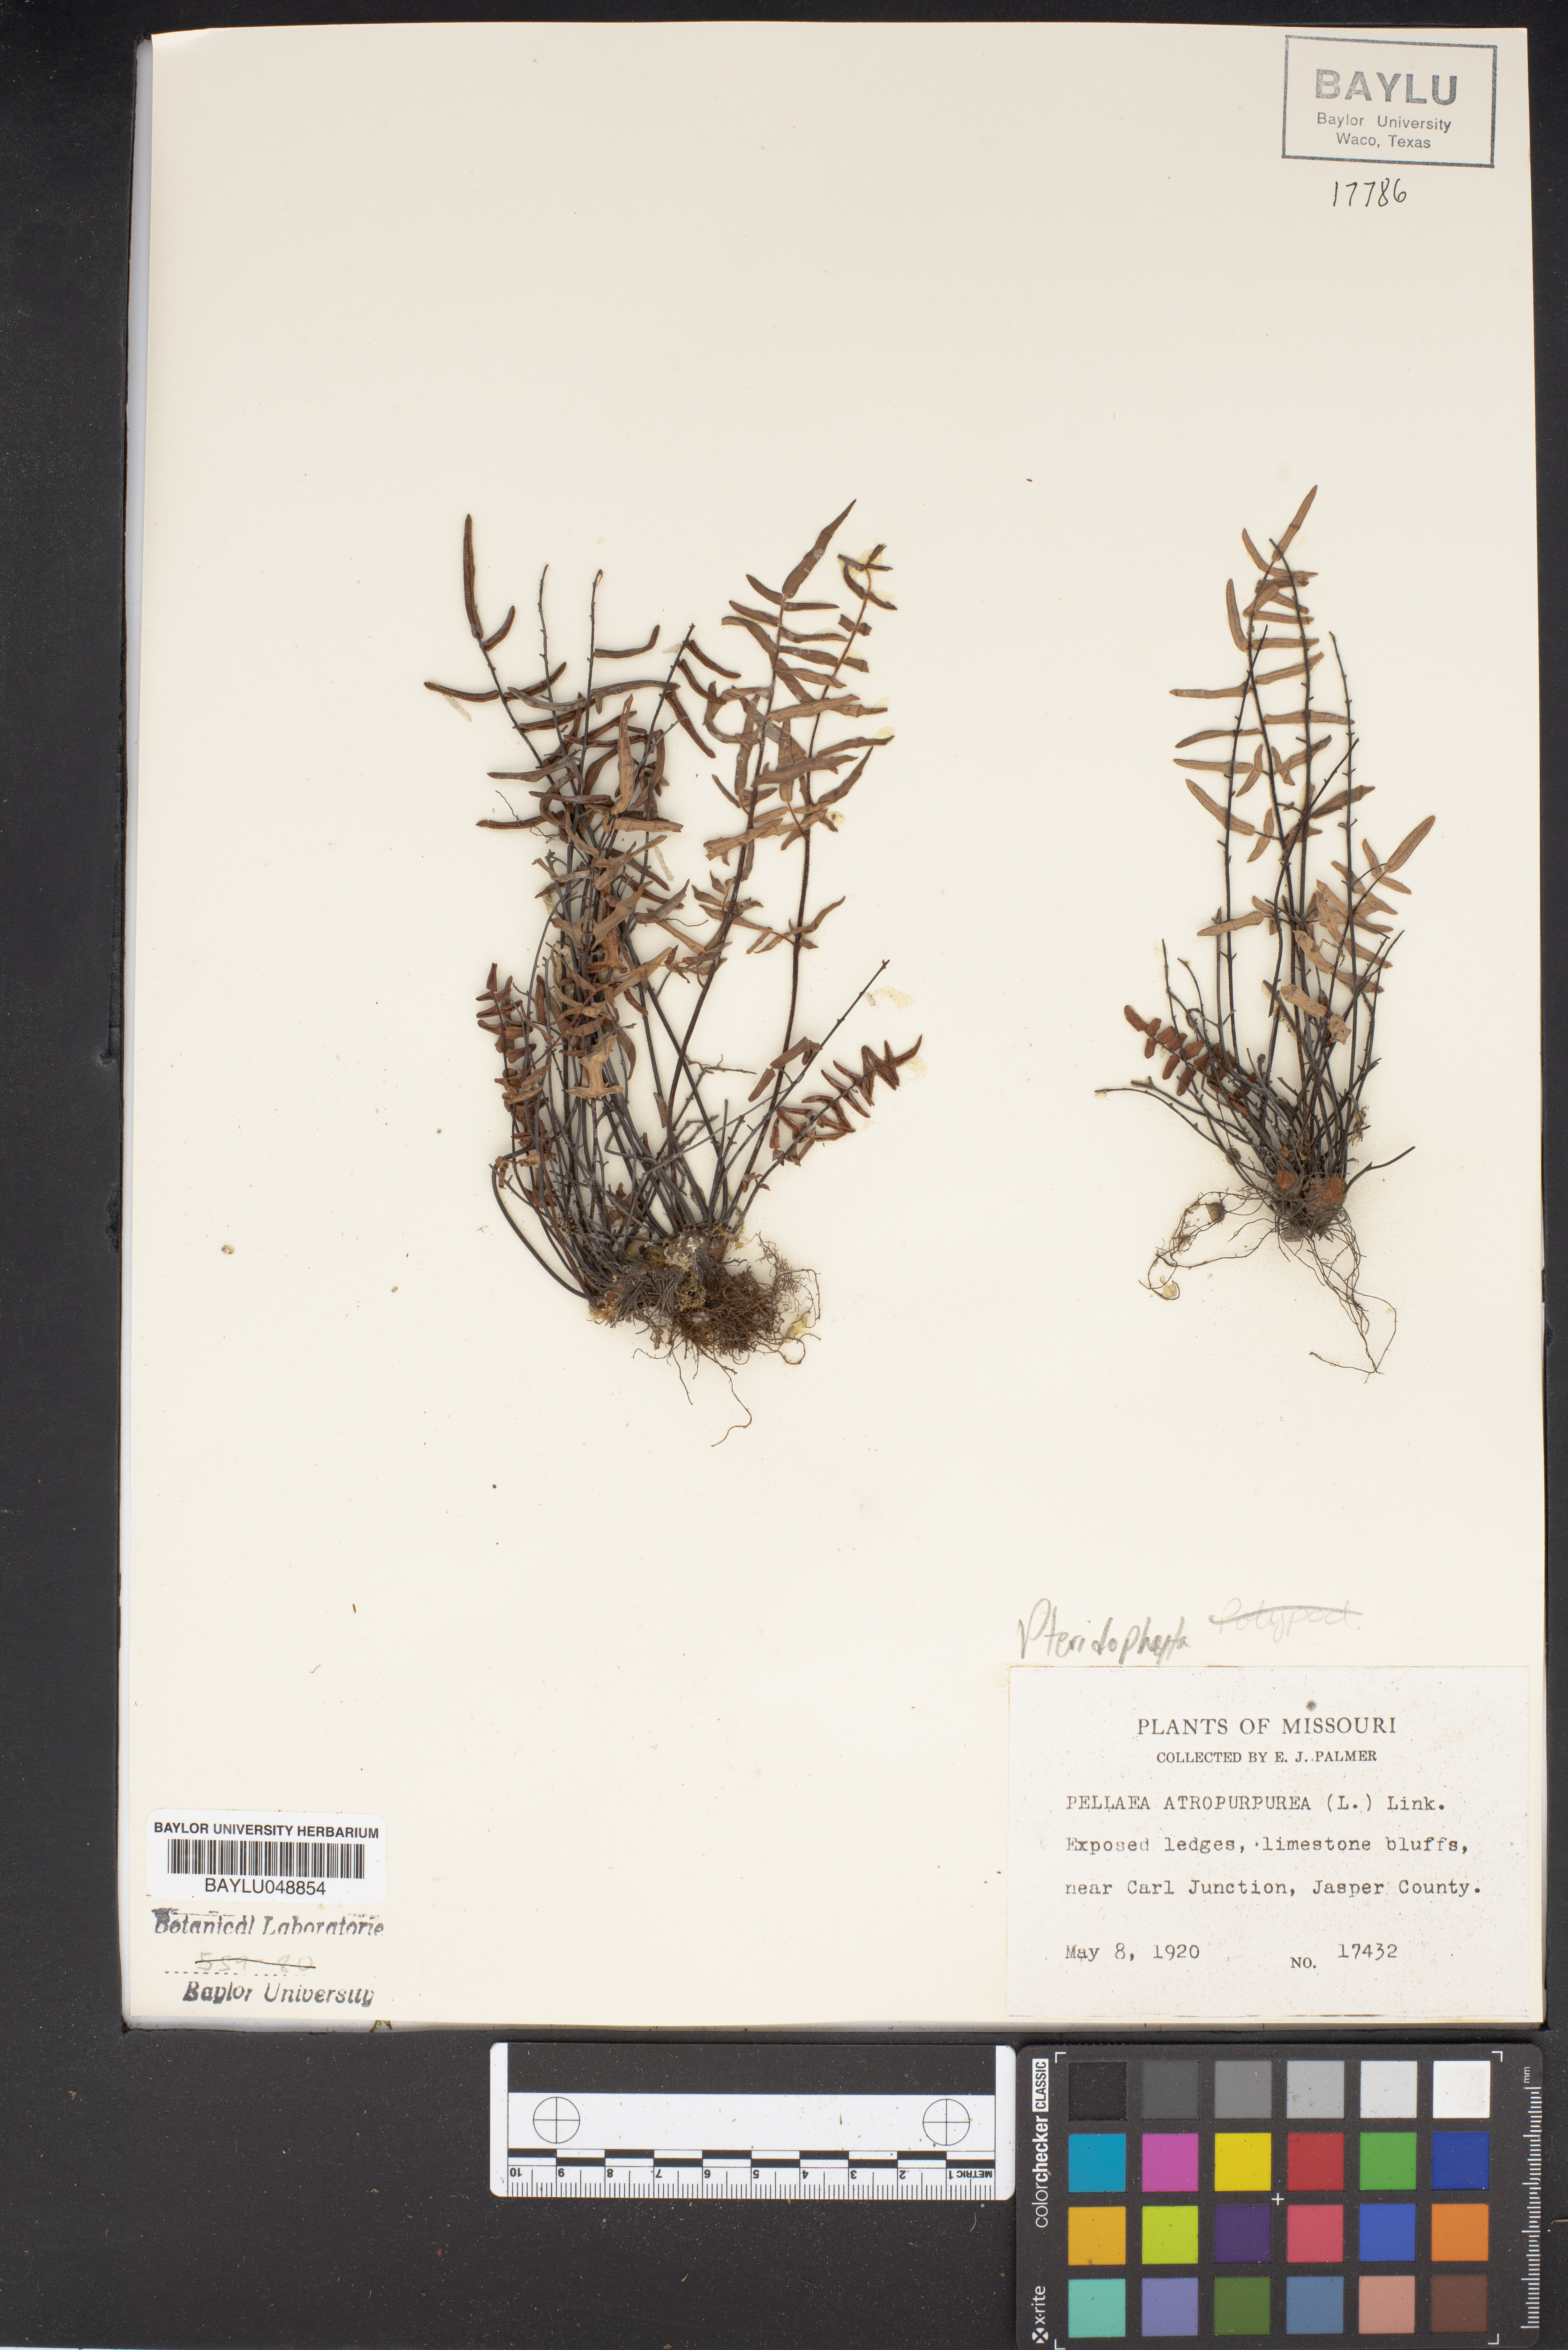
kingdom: Plantae
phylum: Tracheophyta
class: Polypodiopsida
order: Polypodiales
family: Pteridaceae
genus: Pellaea
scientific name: Pellaea atropurpurea
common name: Hairy cliffbrake
